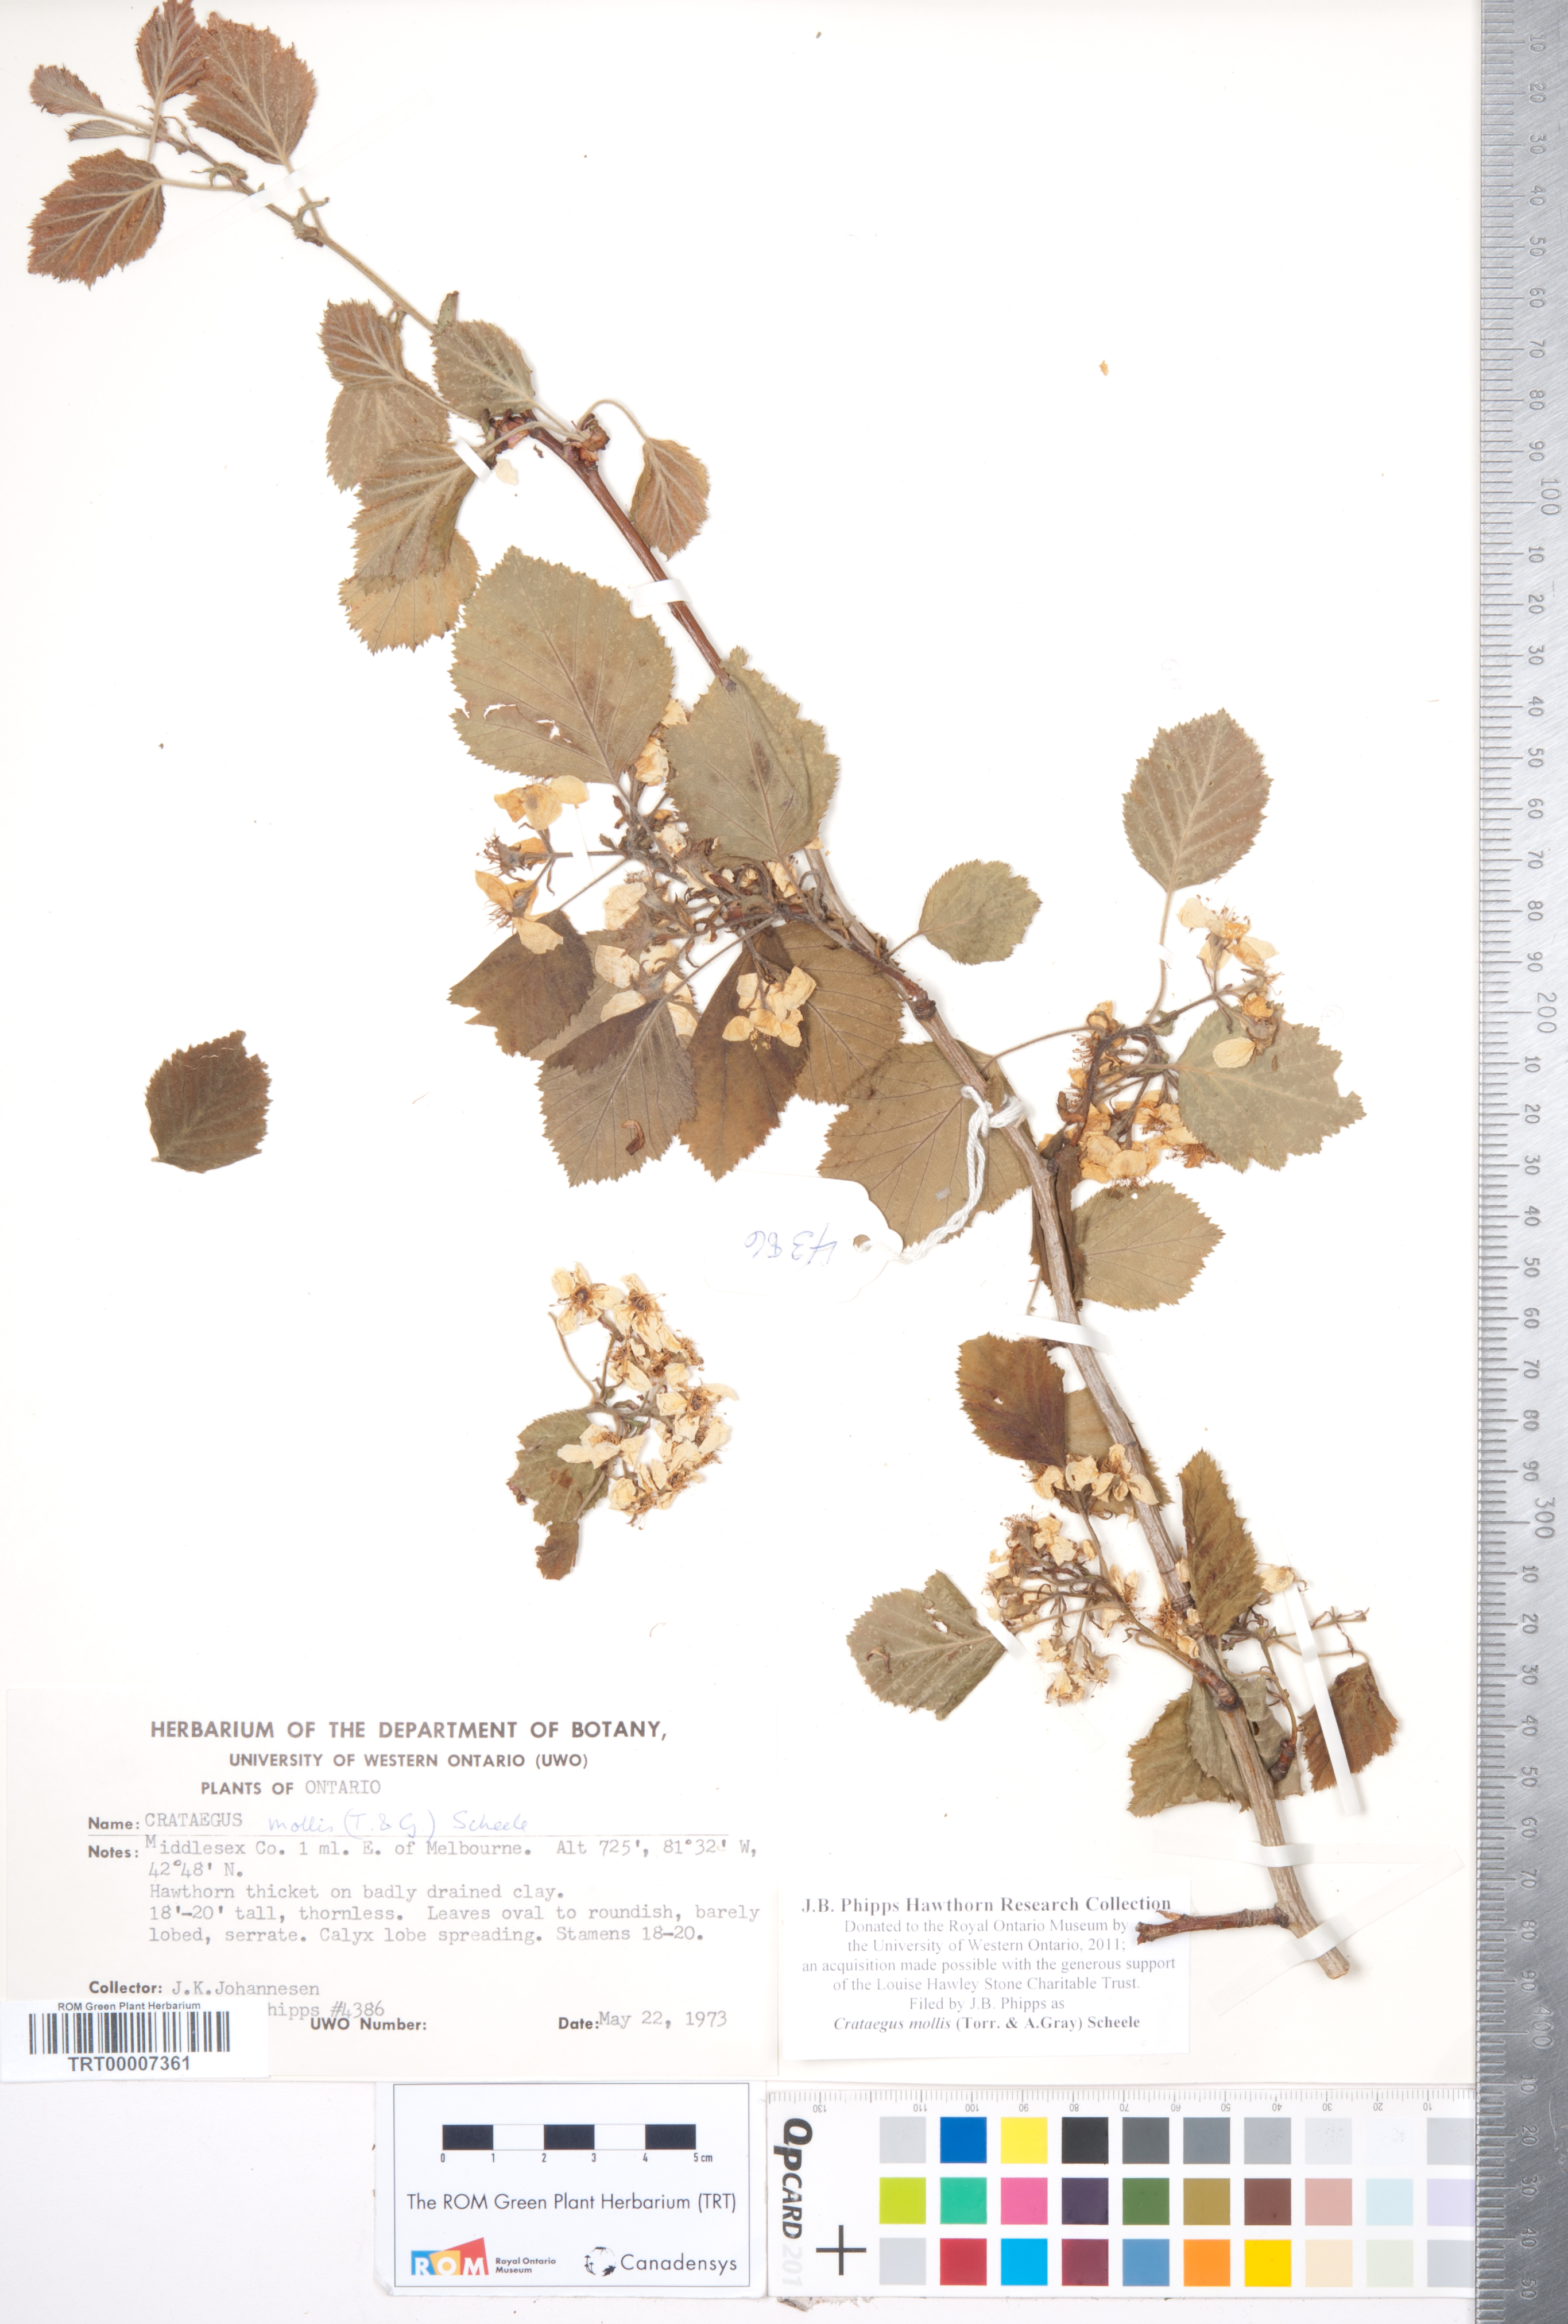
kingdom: Plantae
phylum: Tracheophyta
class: Magnoliopsida
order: Rosales
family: Rosaceae
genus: Crataegus
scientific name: Crataegus mollis
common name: Downy hawthorn
